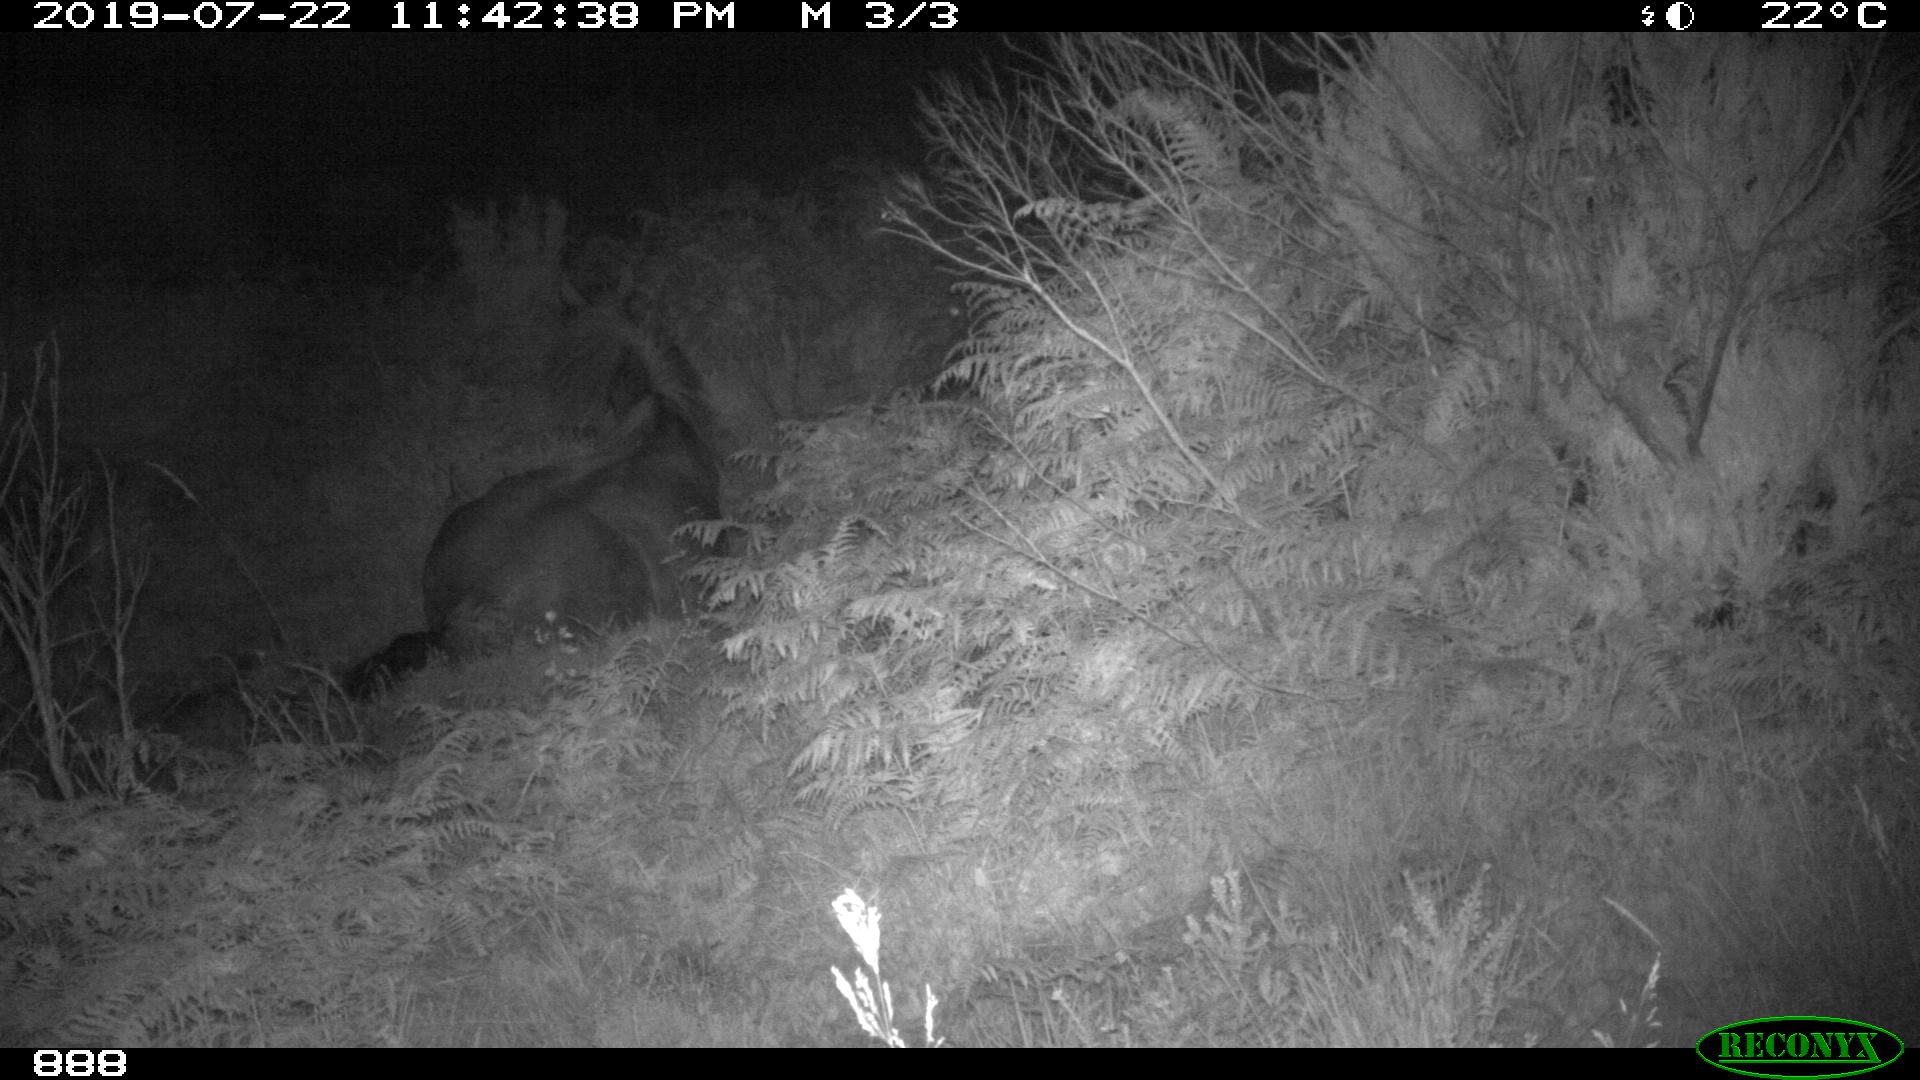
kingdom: Animalia
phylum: Chordata
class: Mammalia
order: Perissodactyla
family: Equidae
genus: Equus
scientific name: Equus caballus
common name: Horse
